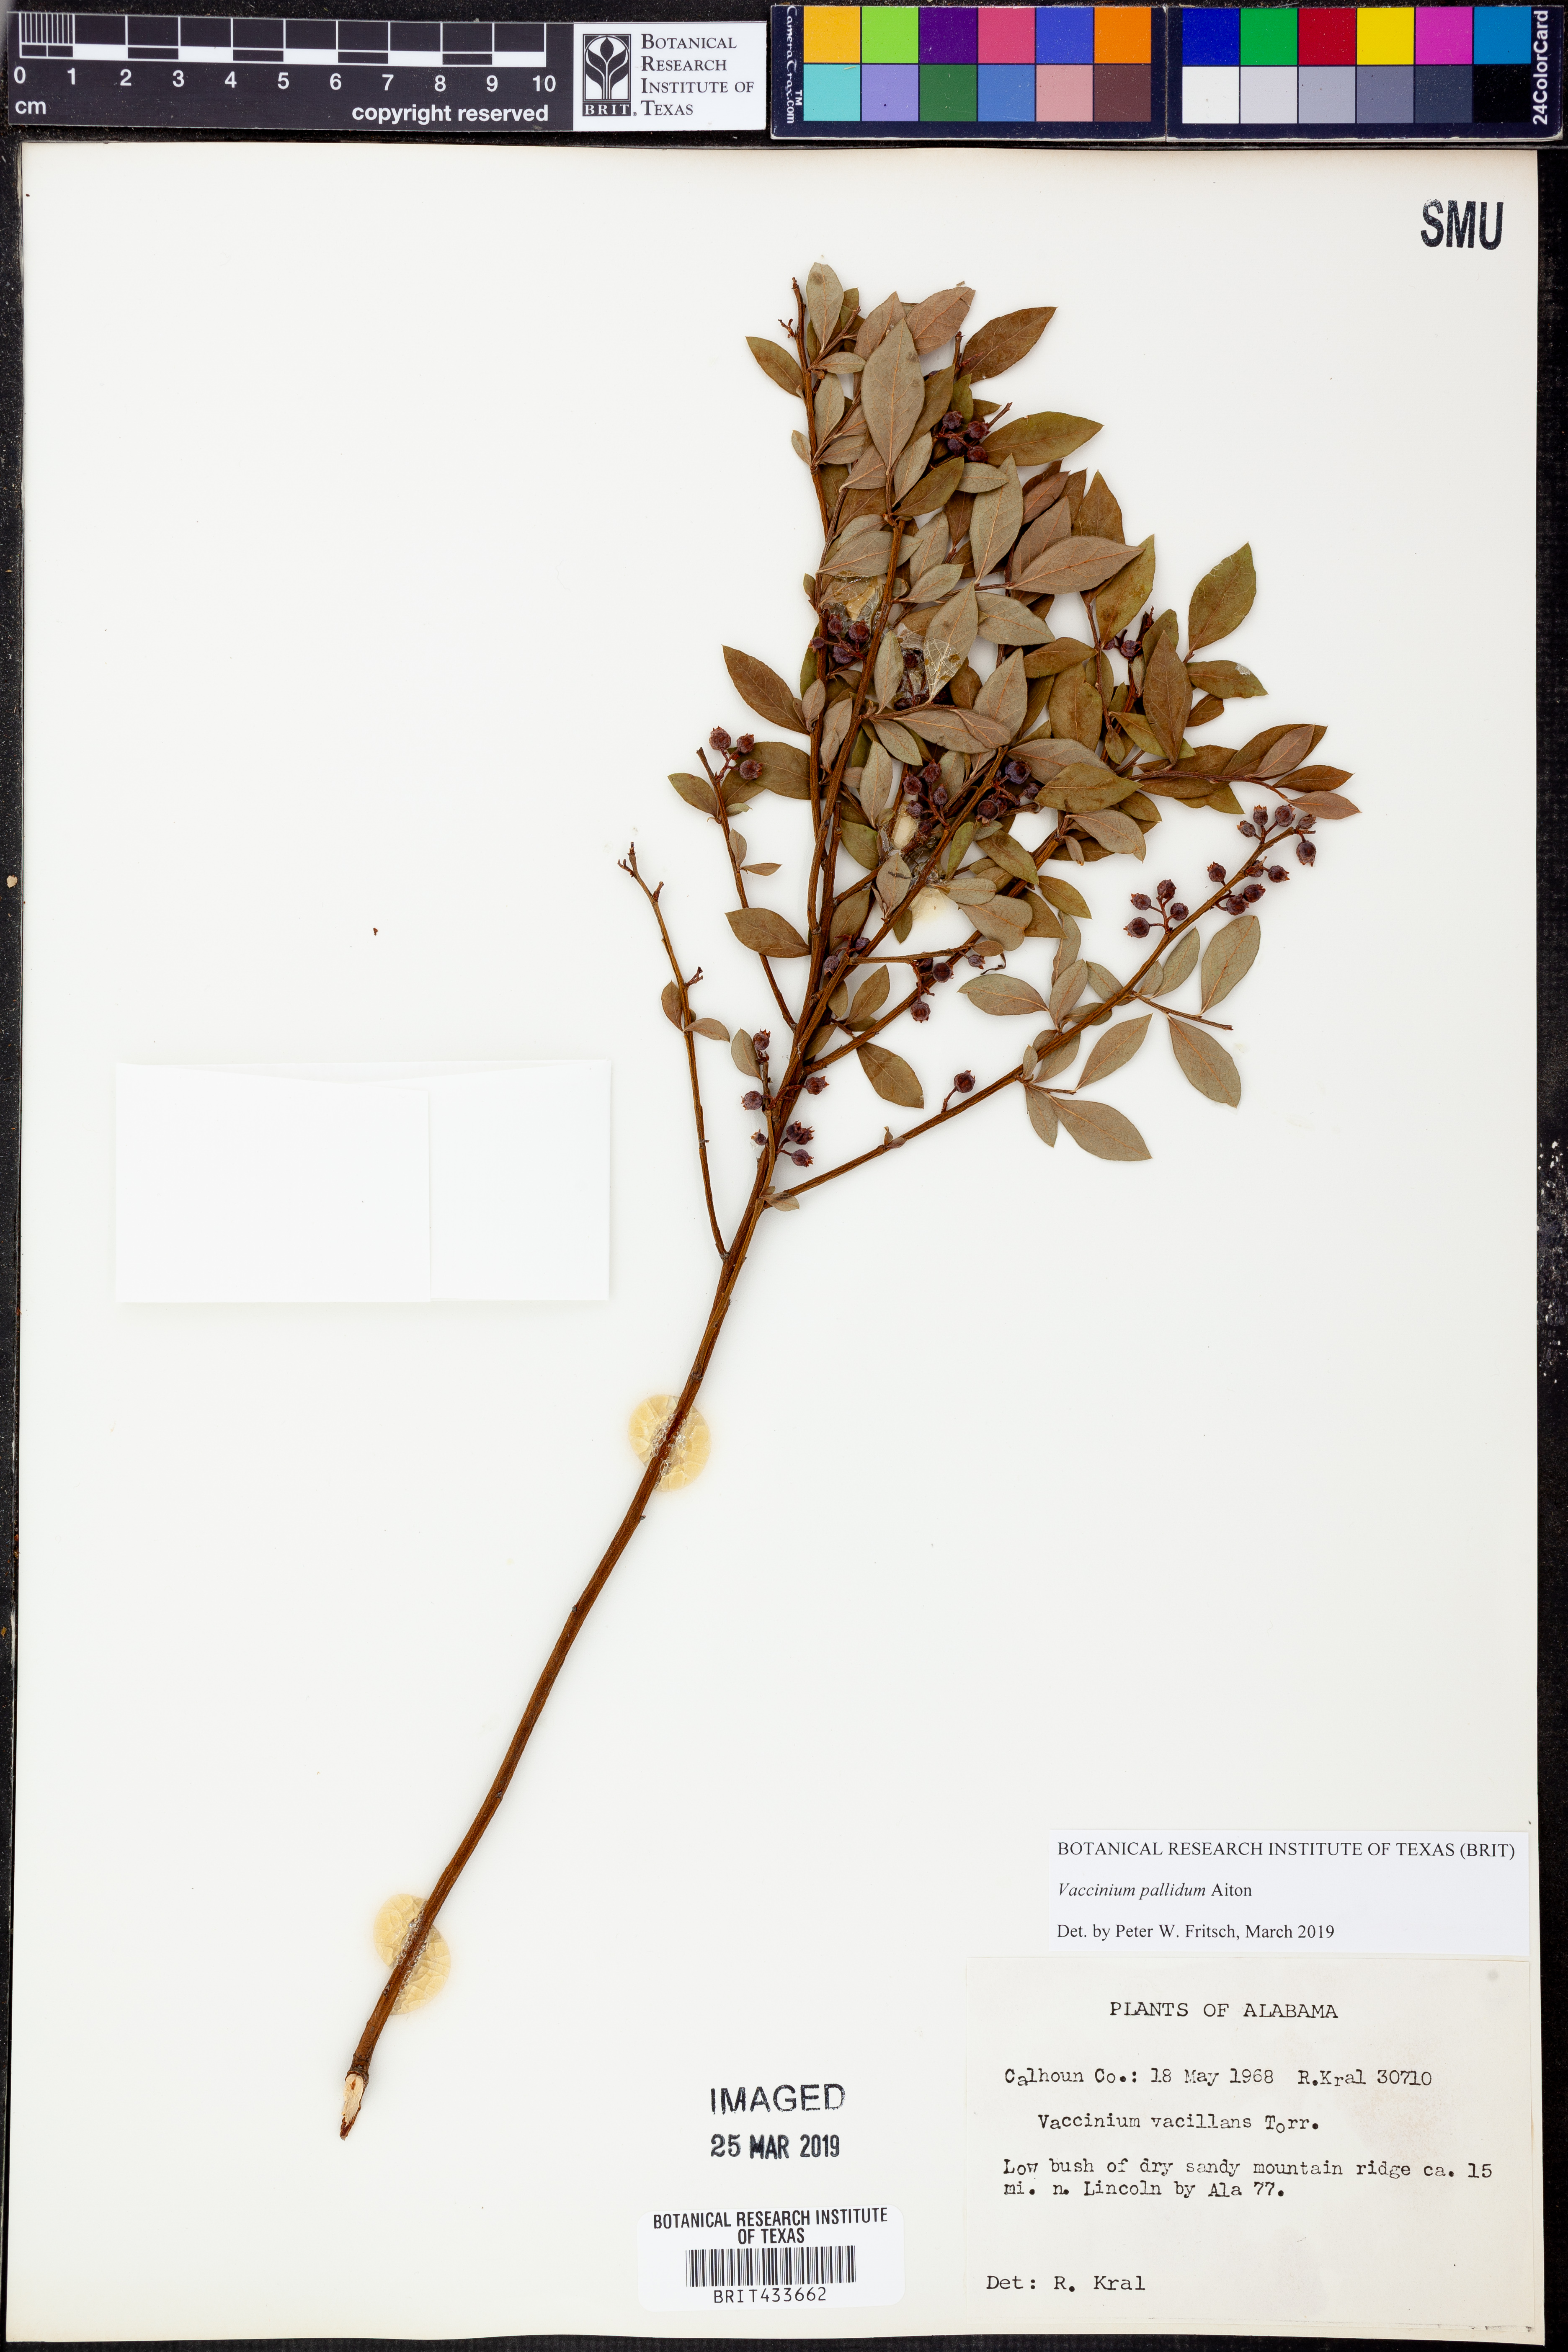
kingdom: Plantae
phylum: Tracheophyta
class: Magnoliopsida
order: Ericales
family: Ericaceae
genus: Vaccinium
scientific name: Vaccinium pallidum
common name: Blue ridge blueberry
